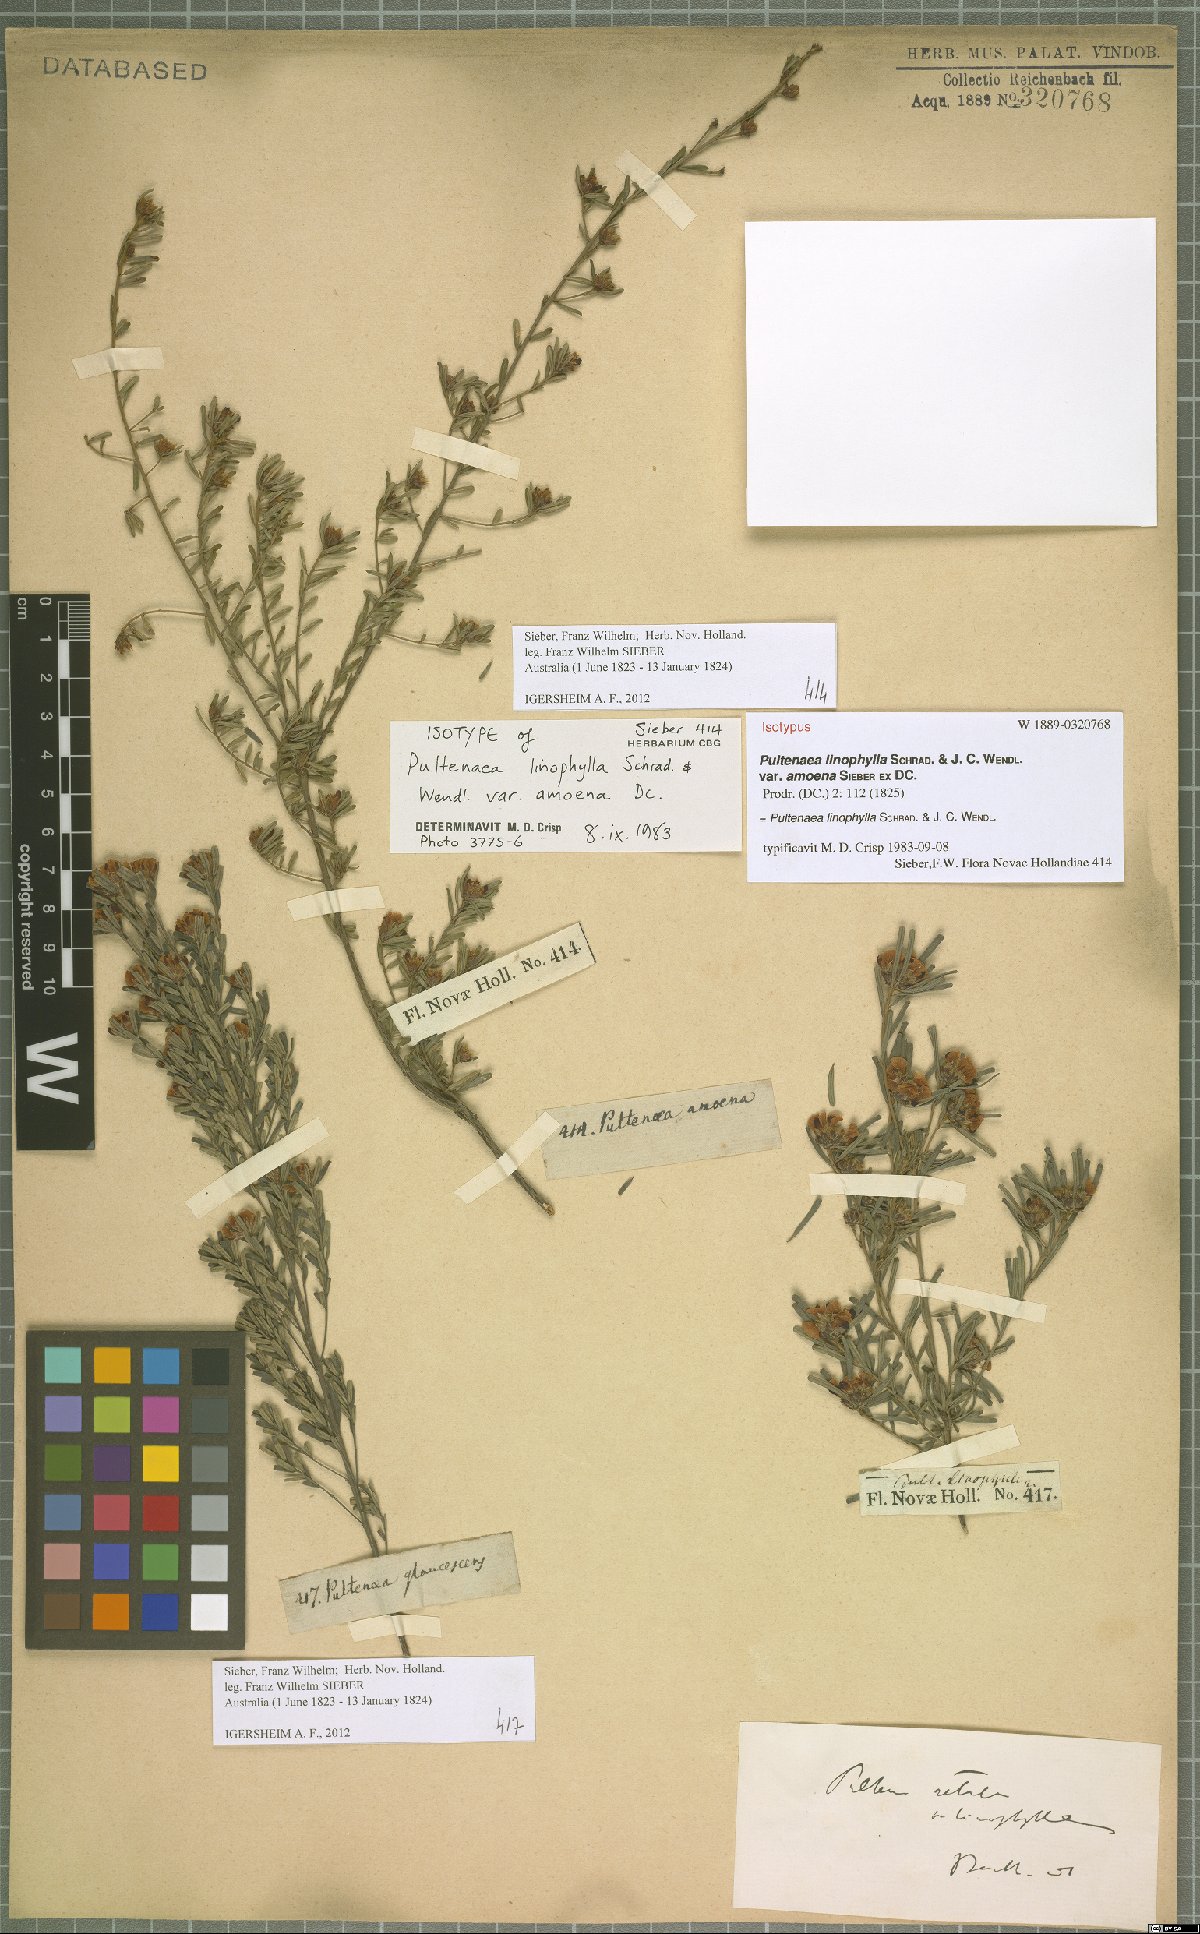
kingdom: Plantae
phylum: Tracheophyta
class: Magnoliopsida
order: Fabales
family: Fabaceae
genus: Pultenaea
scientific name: Pultenaea linophylla
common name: Halo bush-pea
